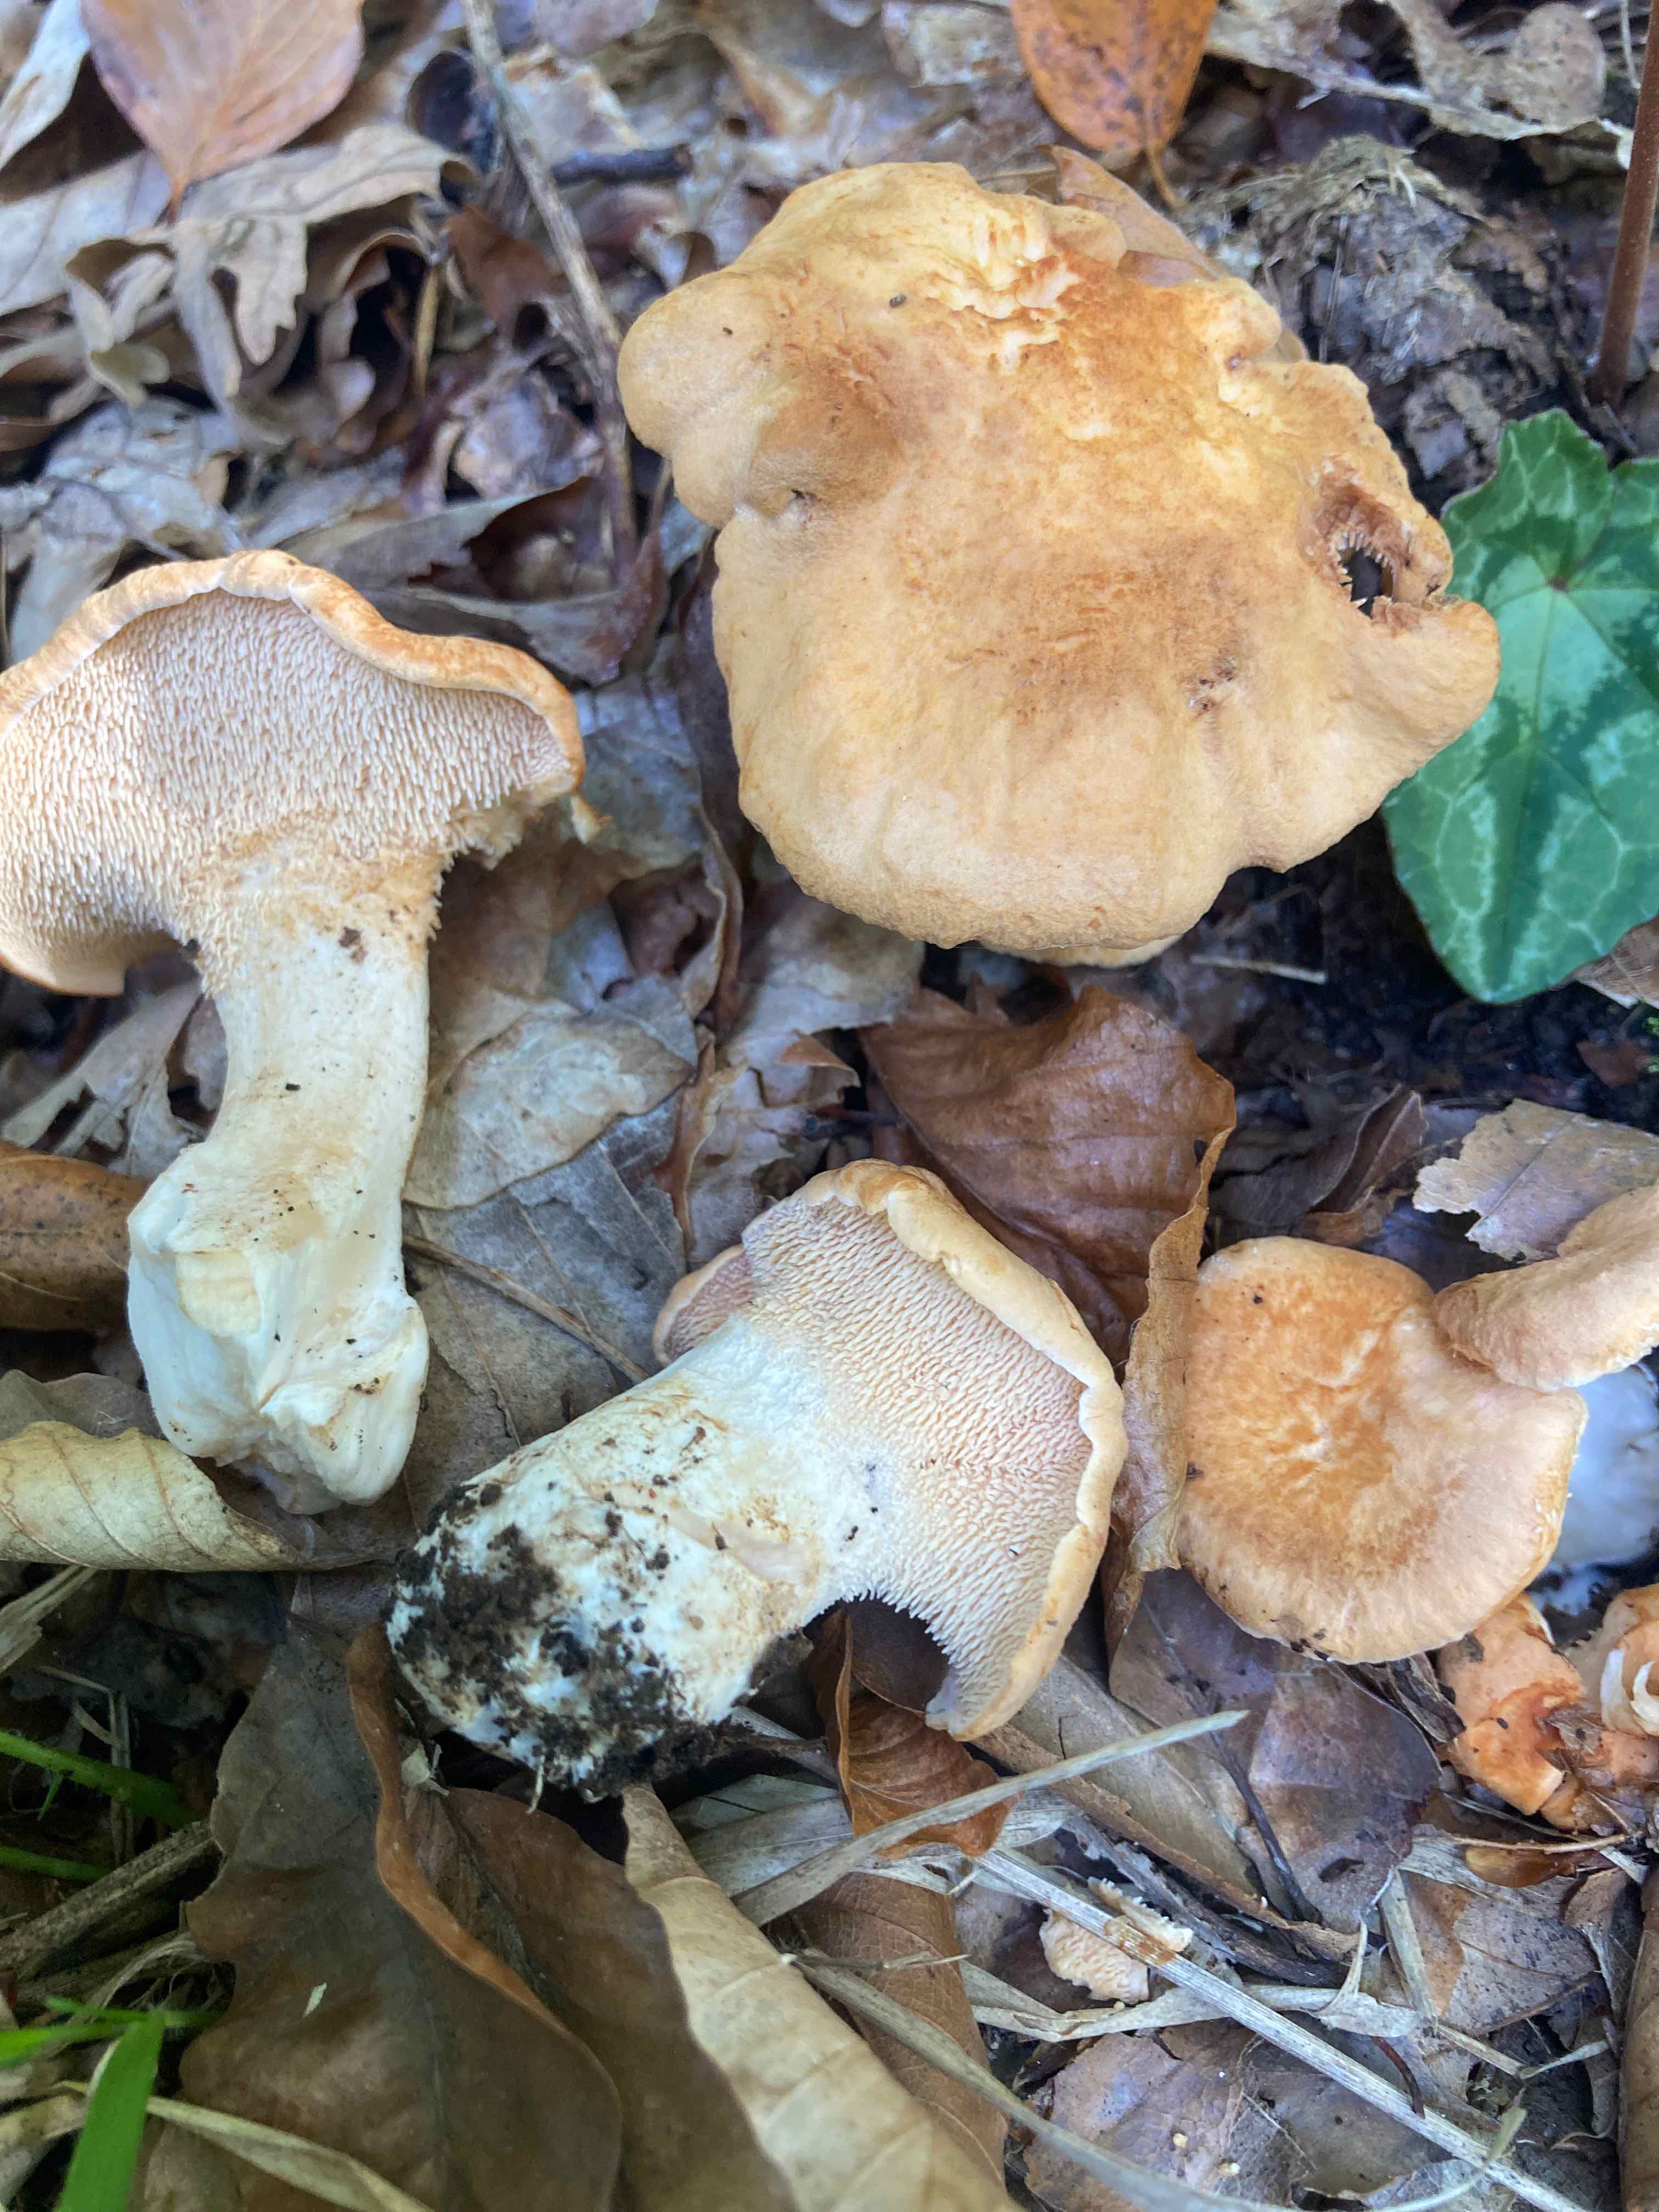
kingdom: Fungi
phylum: Basidiomycota
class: Agaricomycetes
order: Cantharellales
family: Hydnaceae
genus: Hydnum
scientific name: Hydnum subovoideisporum
